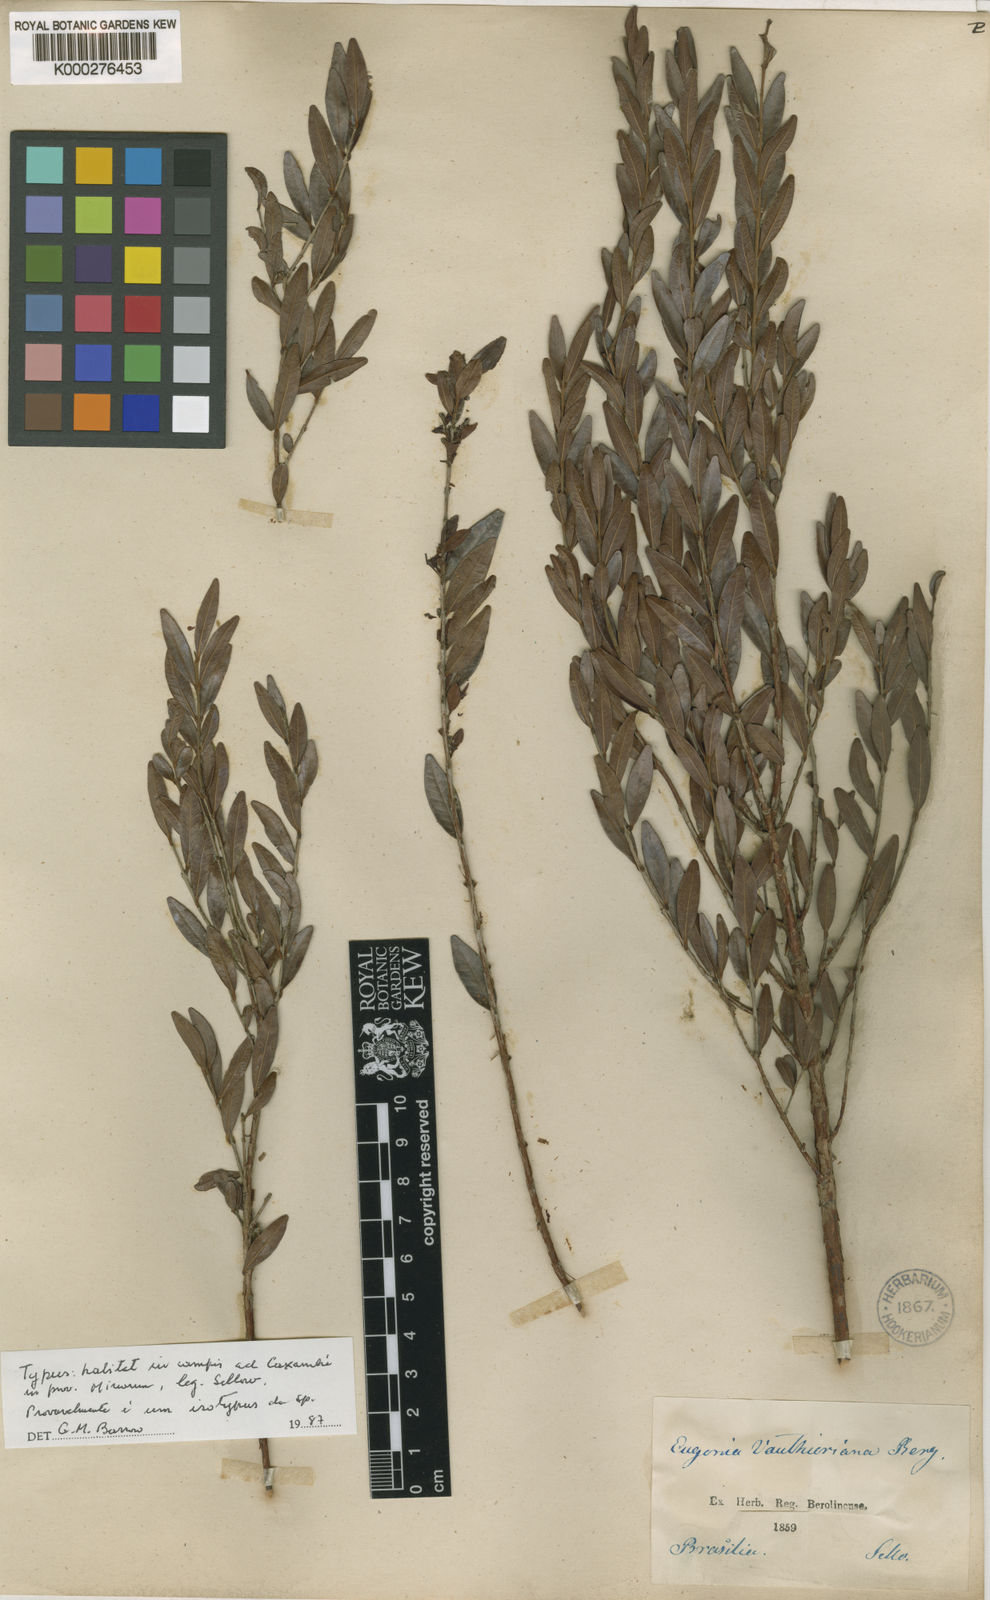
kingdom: Plantae
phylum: Tracheophyta
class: Magnoliopsida
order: Myrtales
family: Myrtaceae
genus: Eugenia
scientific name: Eugenia pyriformis
